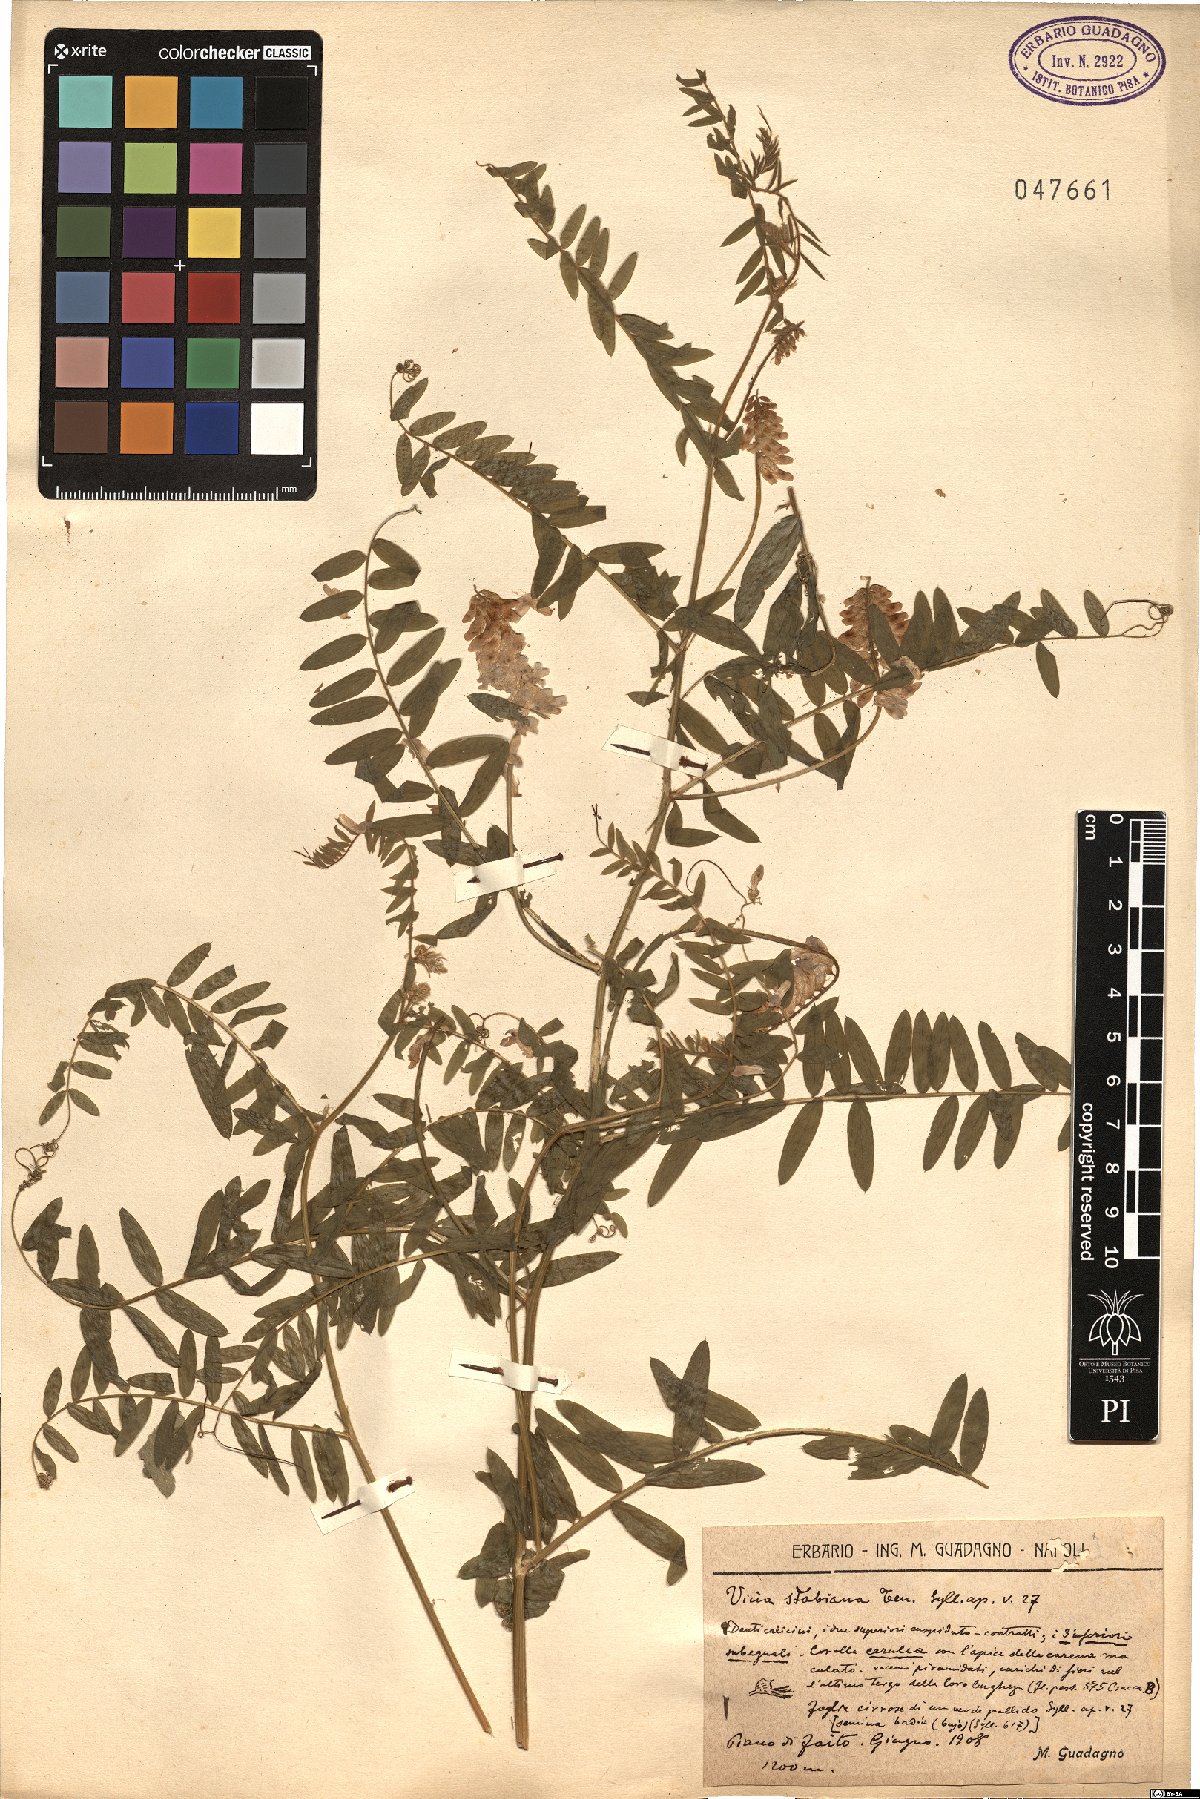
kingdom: Plantae
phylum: Tracheophyta
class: Magnoliopsida
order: Fabales
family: Fabaceae
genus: Vicia
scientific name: Vicia incana
